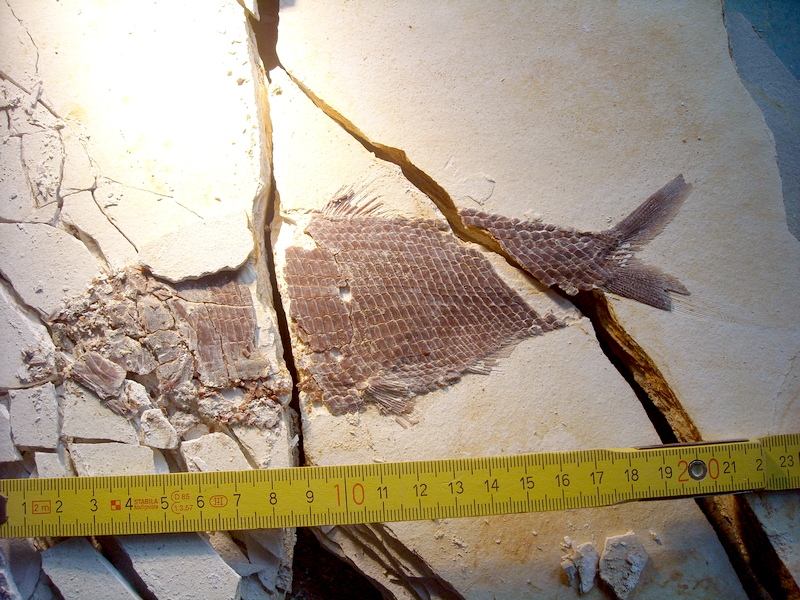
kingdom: Animalia
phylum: Chordata
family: Ankylophoridae
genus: Pholidophoristion
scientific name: Pholidophoristion ovatus
